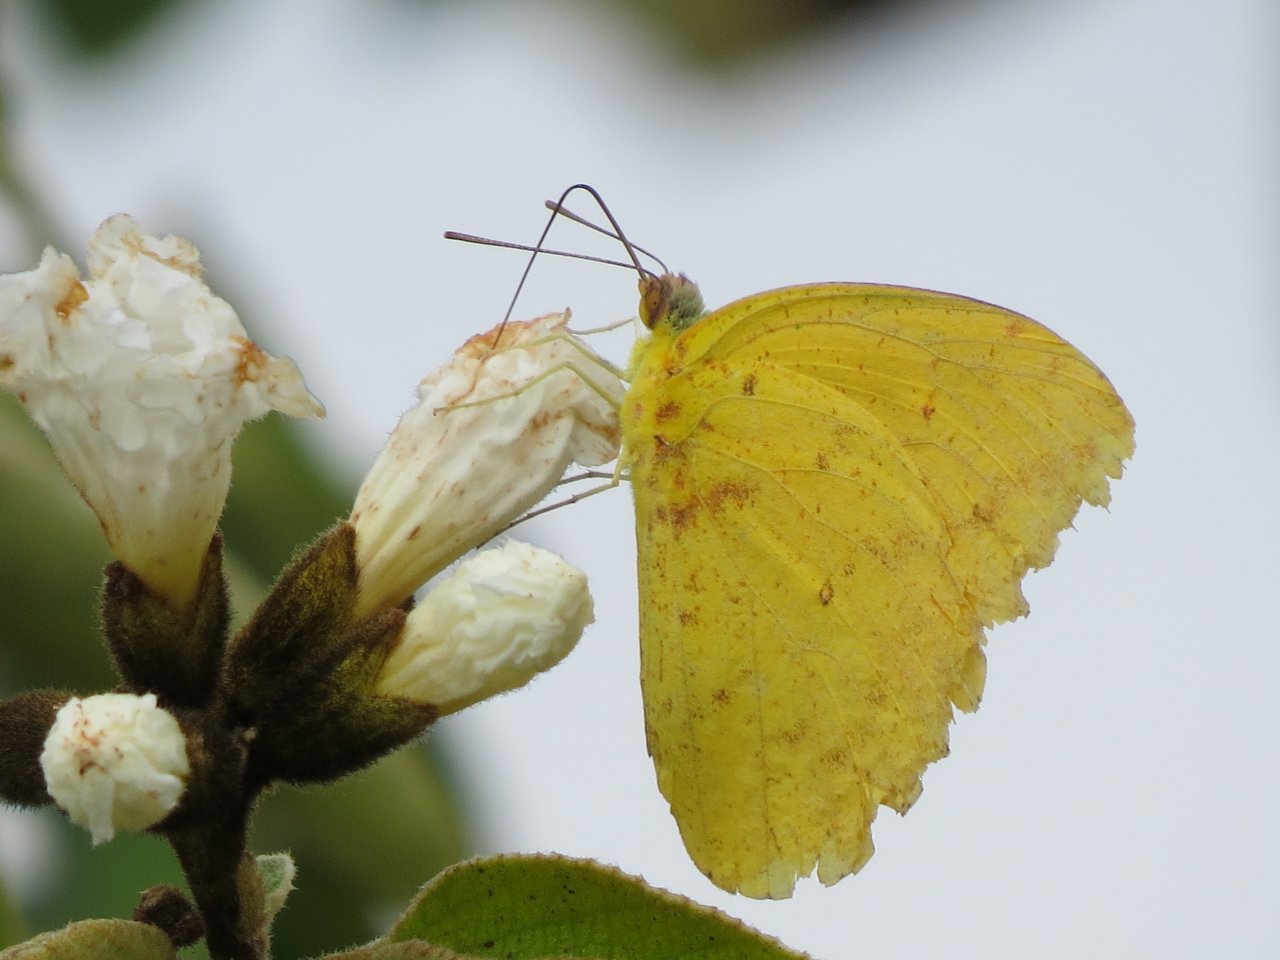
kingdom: Animalia
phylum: Arthropoda
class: Insecta
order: Lepidoptera
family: Pieridae
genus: Phoebis
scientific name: Phoebis agarithe
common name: Large Orange Sulphur
